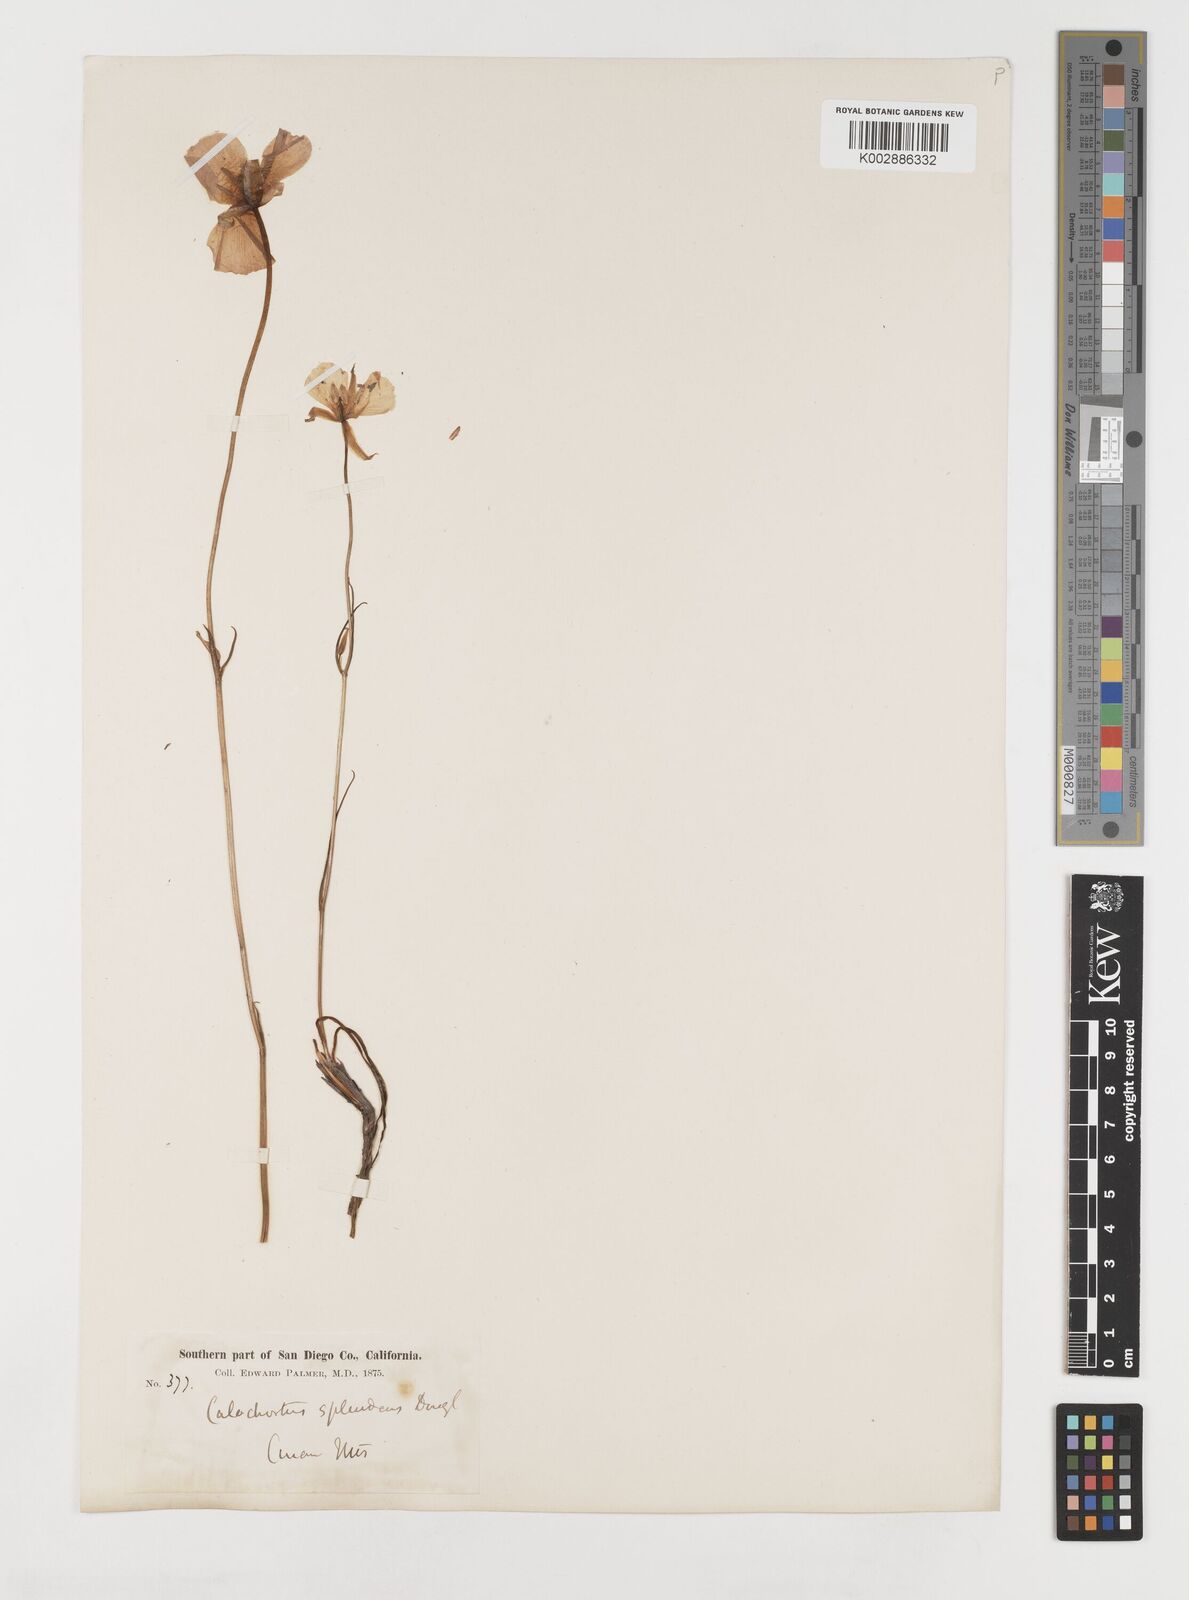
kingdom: Plantae
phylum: Tracheophyta
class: Liliopsida
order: Liliales
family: Liliaceae
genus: Calochortus
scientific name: Calochortus splendens
